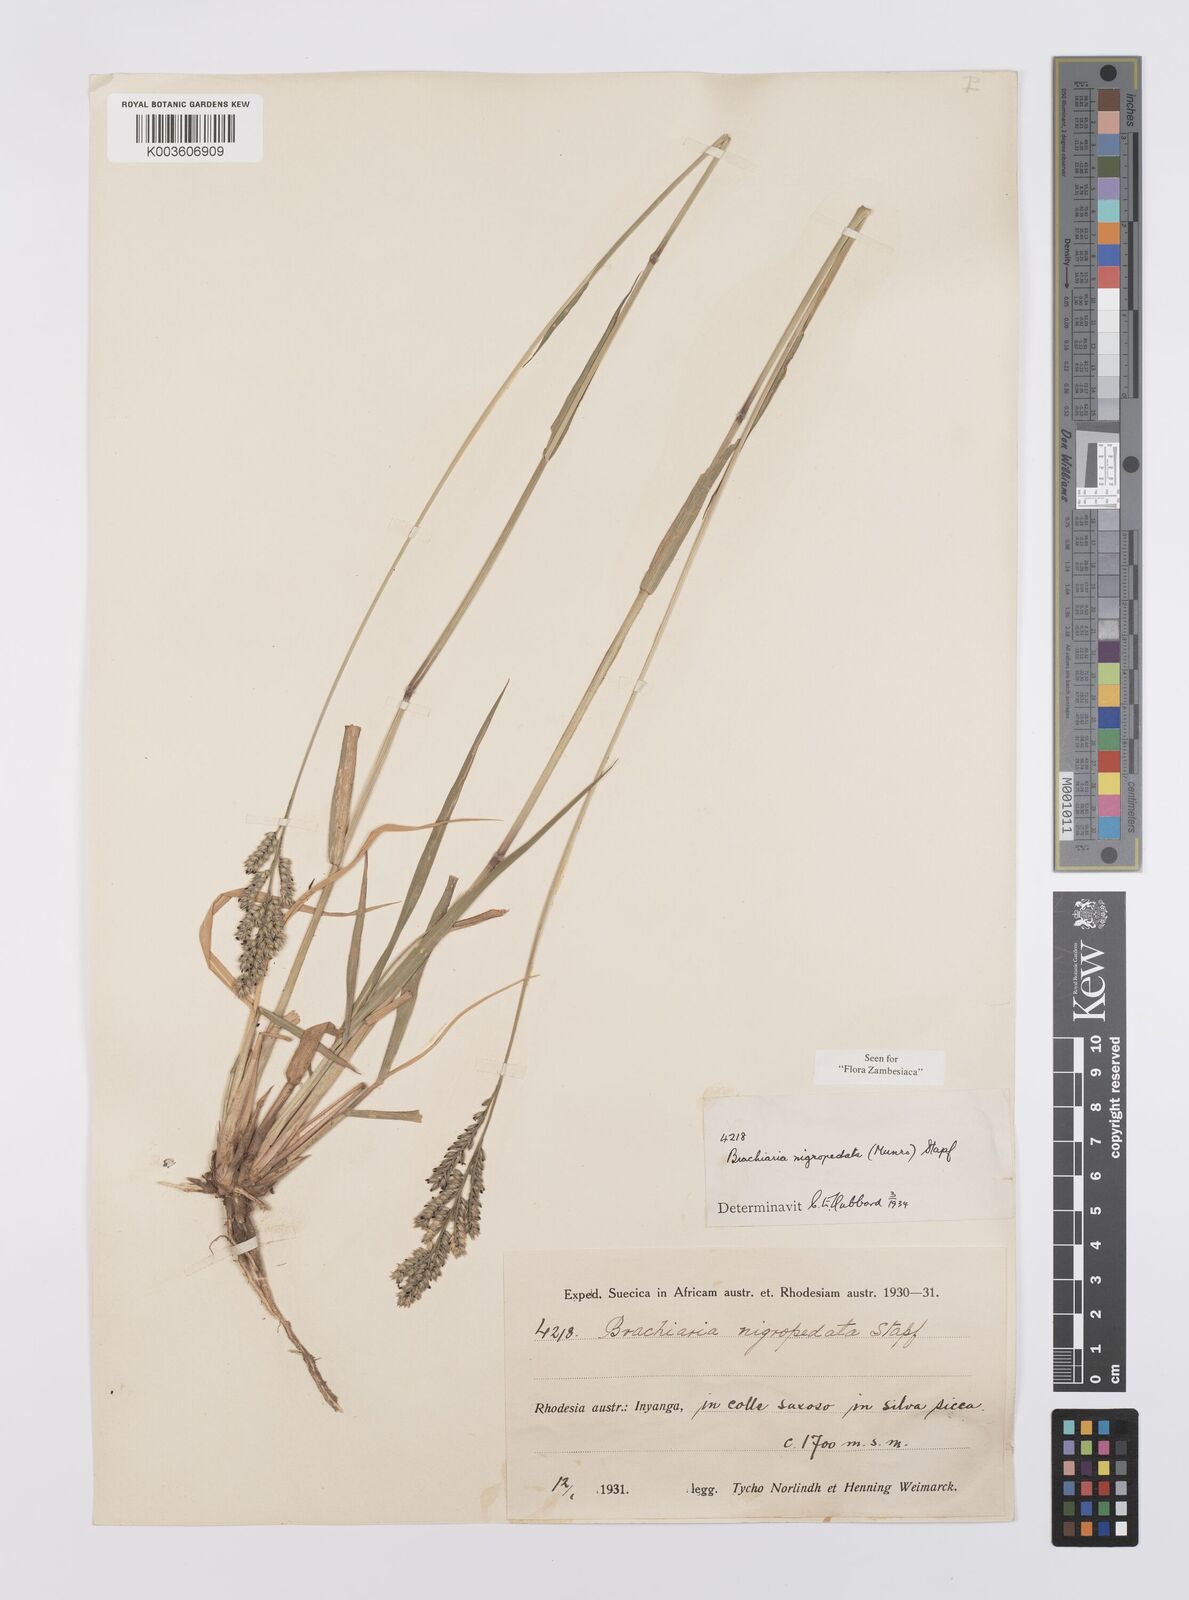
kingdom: Plantae
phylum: Tracheophyta
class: Liliopsida
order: Poales
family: Poaceae
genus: Urochloa
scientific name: Urochloa nigropedata
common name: Spotted signal grass
